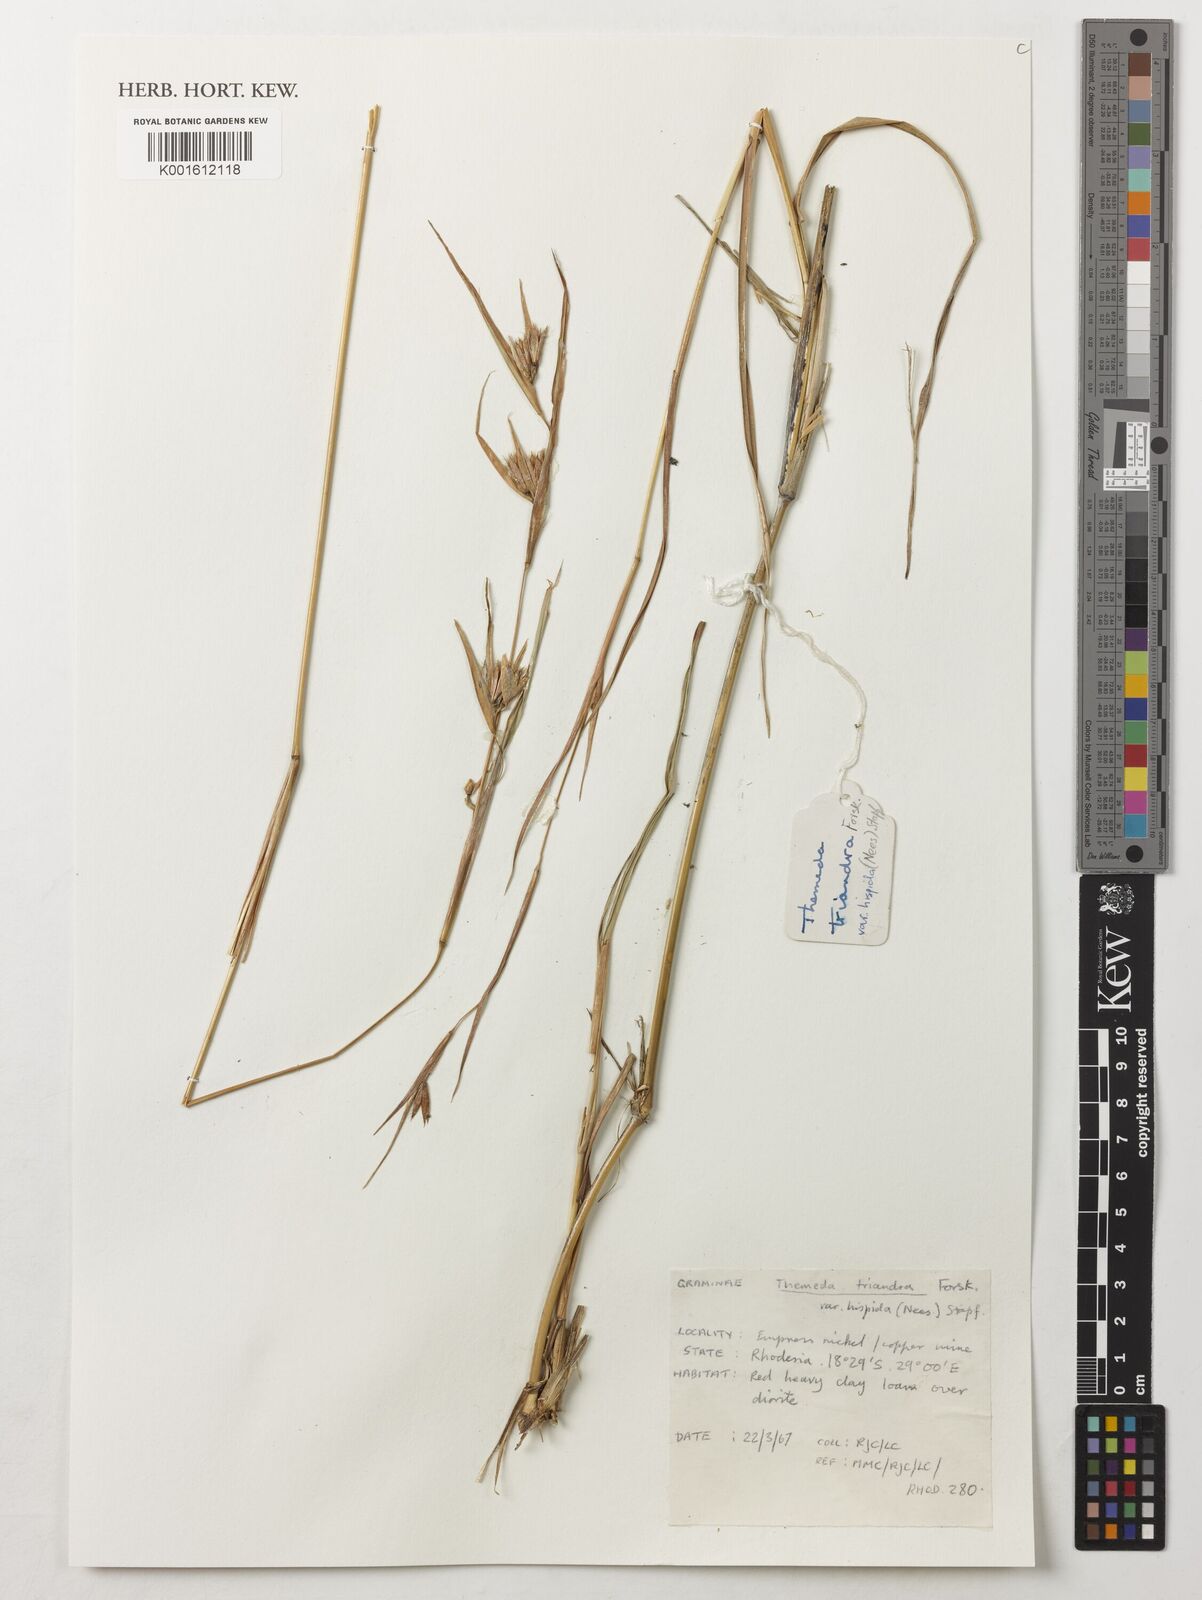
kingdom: Plantae
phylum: Tracheophyta
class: Liliopsida
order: Poales
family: Poaceae
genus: Themeda
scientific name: Themeda triandra
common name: Kangaroo grass
